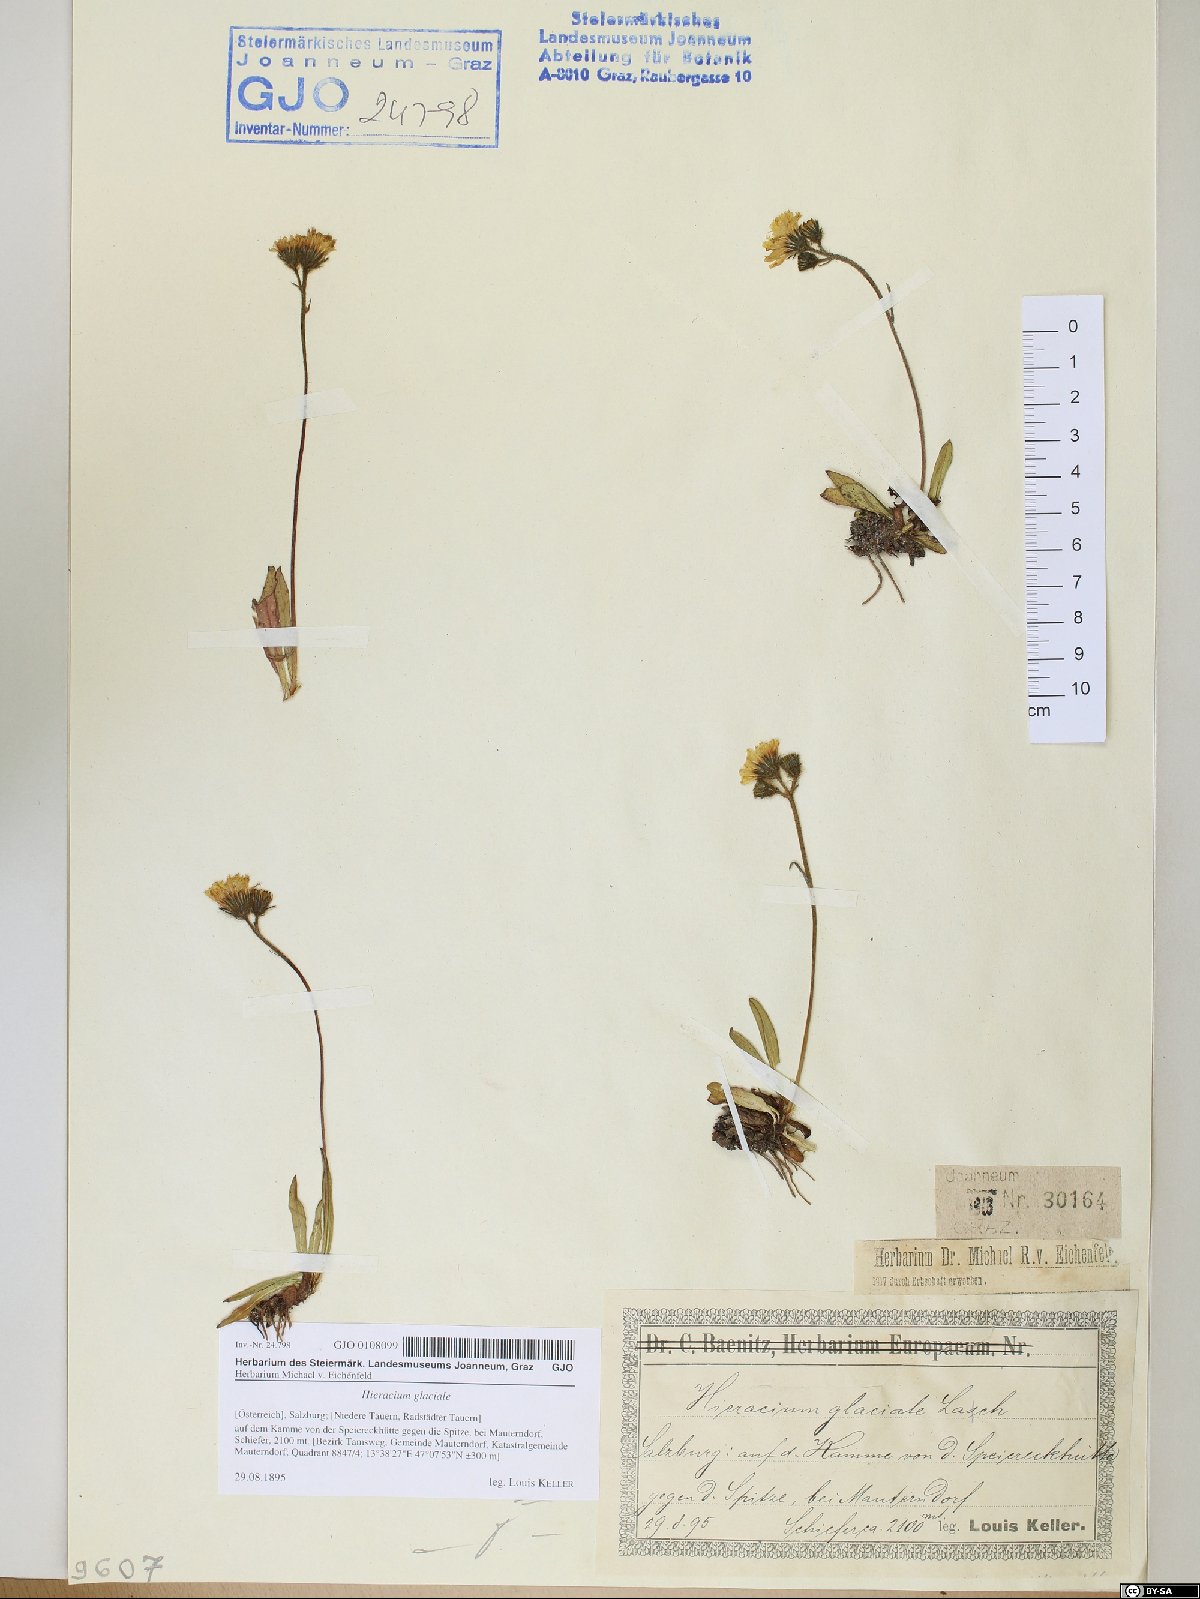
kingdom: Plantae
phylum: Tracheophyta
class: Magnoliopsida
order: Asterales
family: Asteraceae
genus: Pilosella
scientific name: Pilosella glacialis
